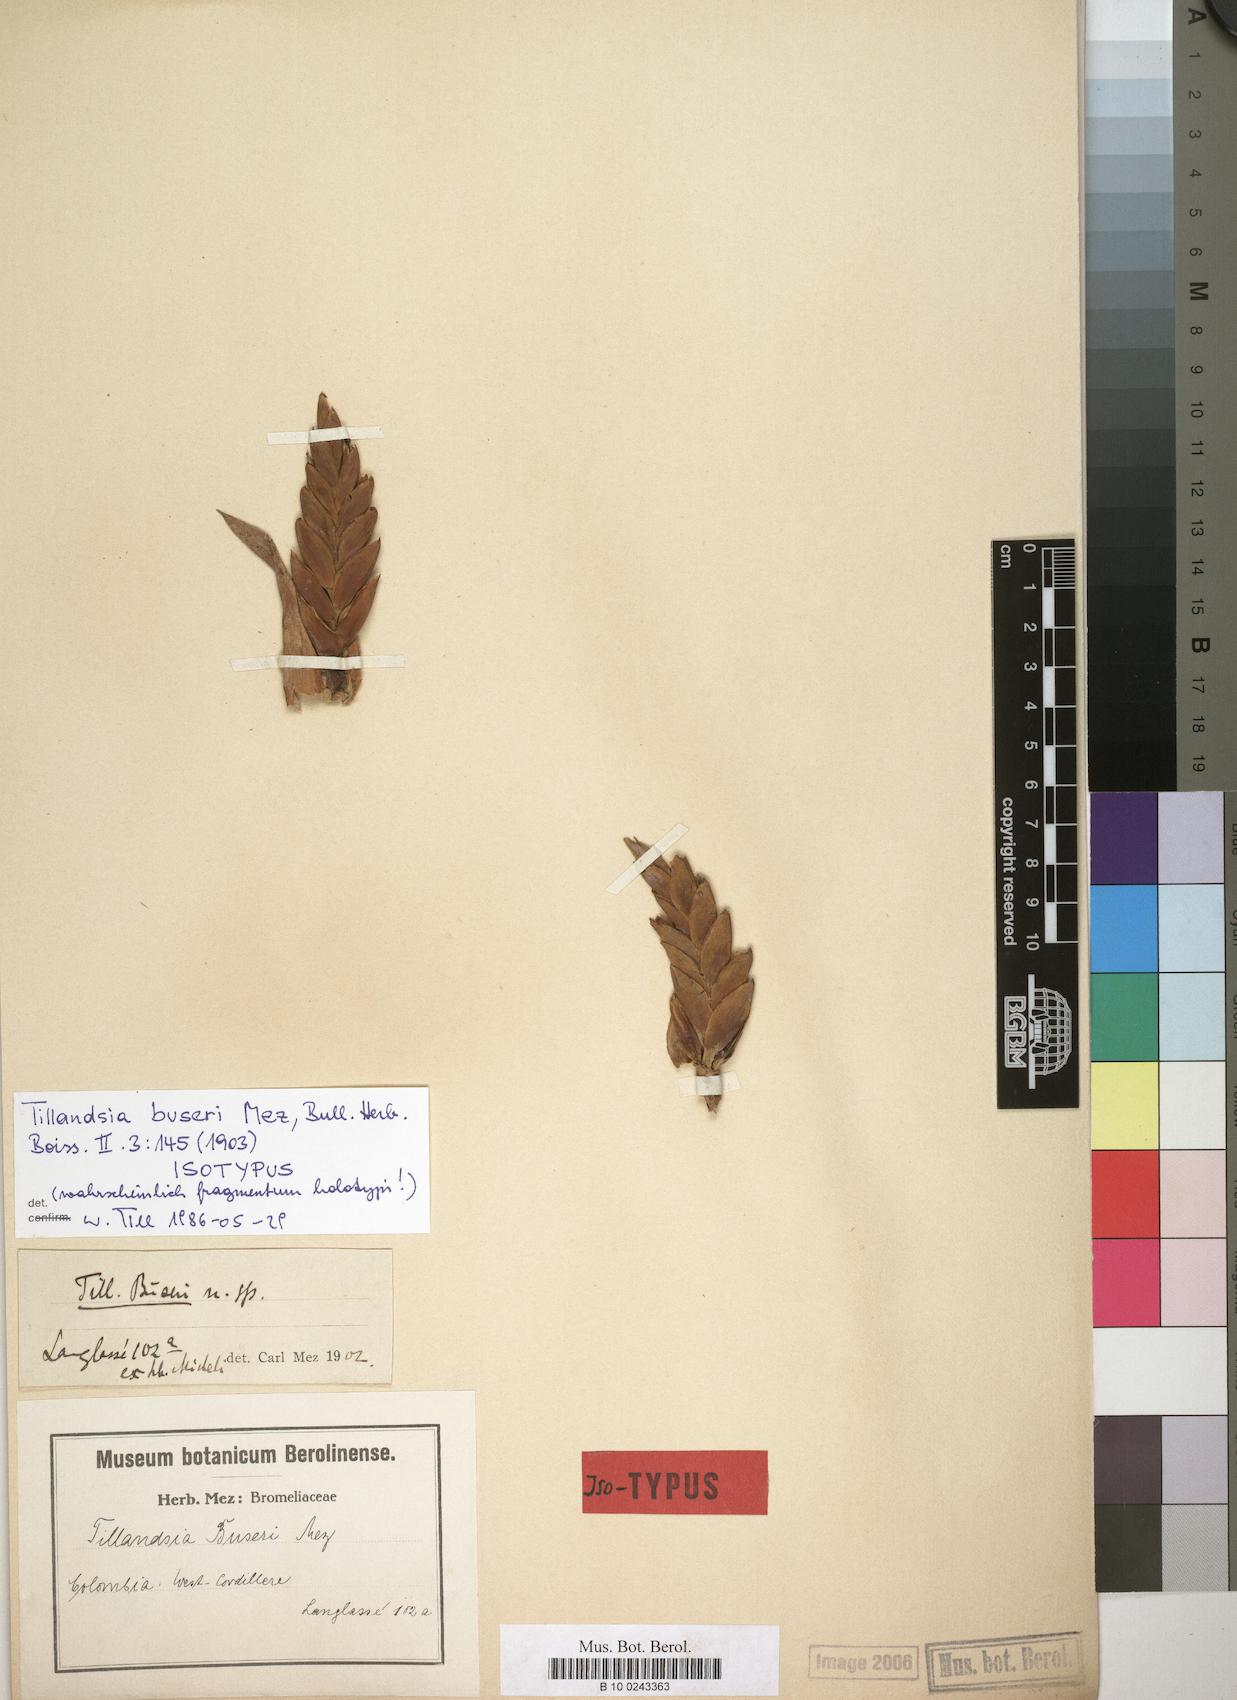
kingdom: Plantae
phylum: Tracheophyta
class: Liliopsida
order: Poales
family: Bromeliaceae
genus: Tillandsia
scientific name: Tillandsia buseri
